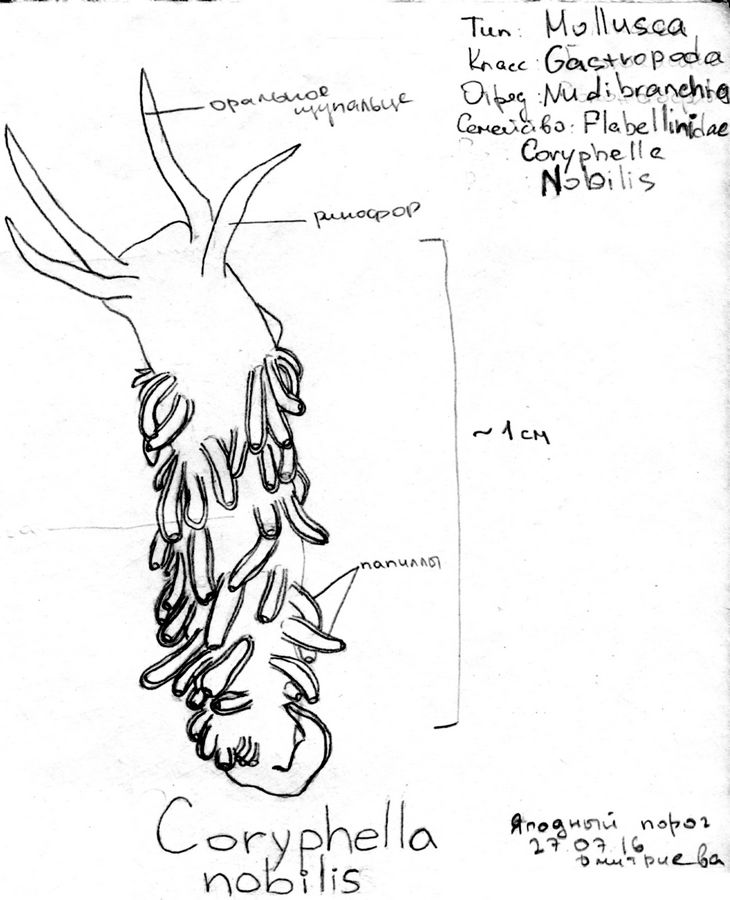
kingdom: Animalia
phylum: Mollusca
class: Gastropoda
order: Nudibranchia
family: Flabellinidae
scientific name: Flabellinidae
